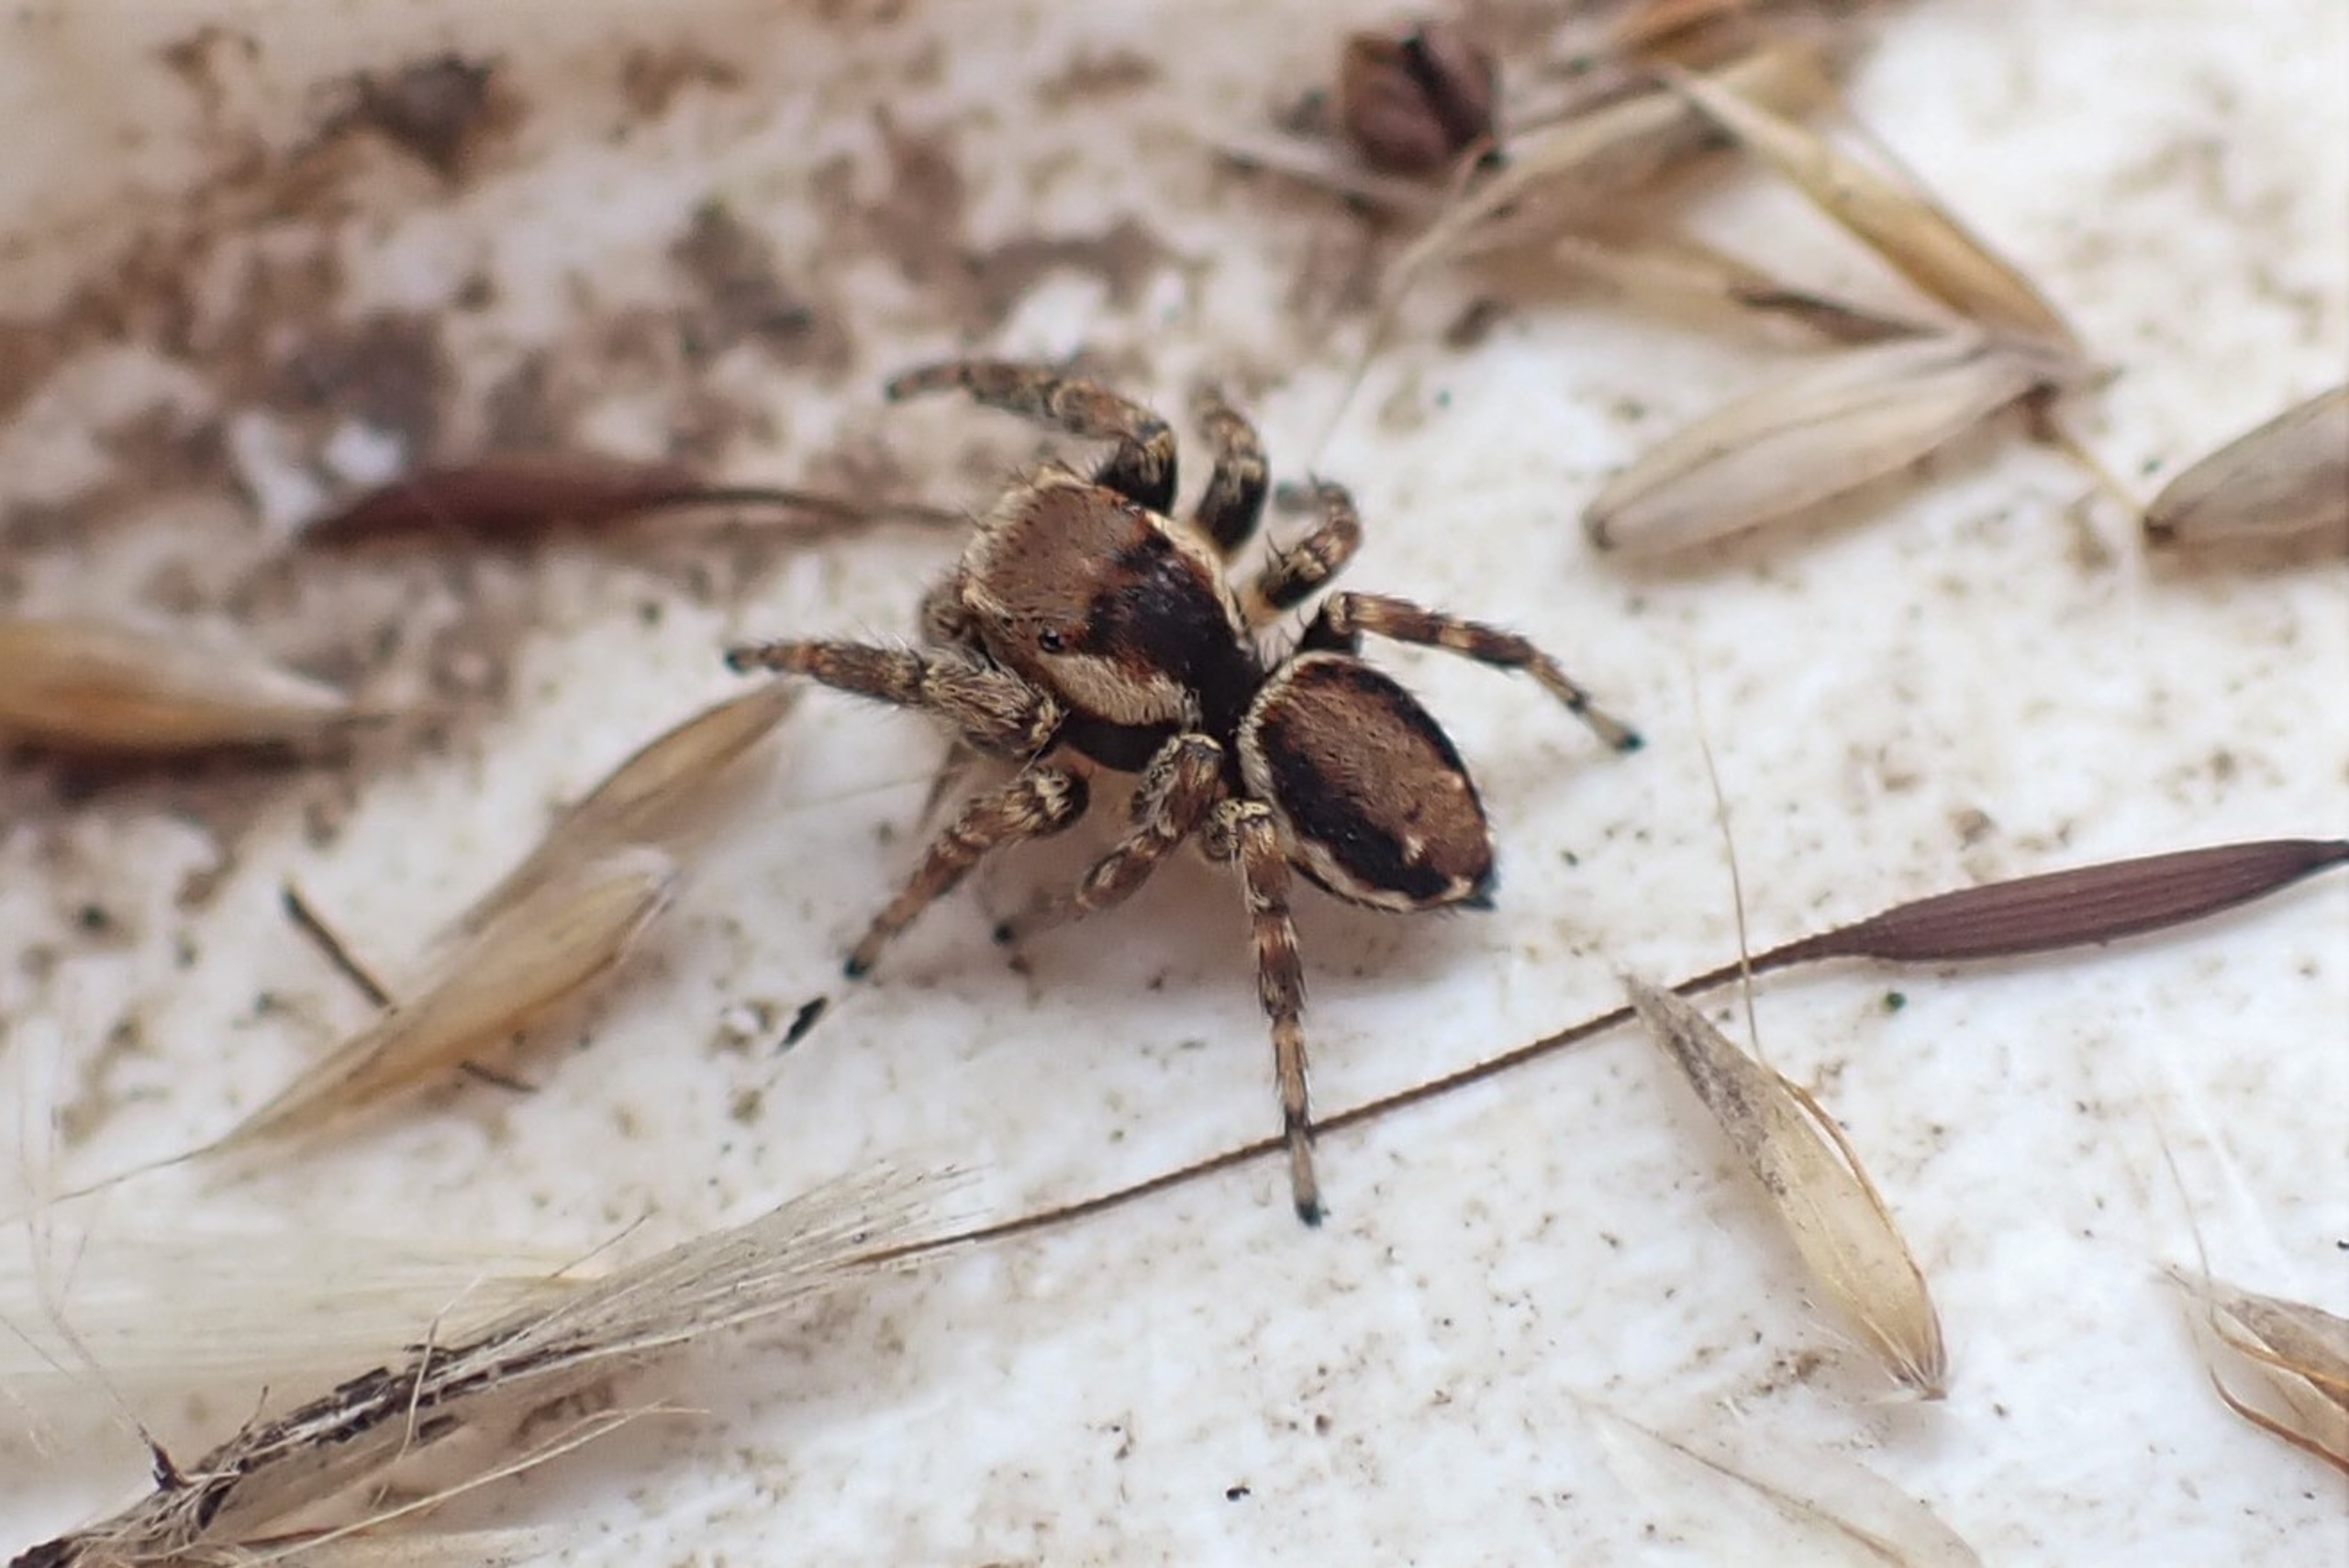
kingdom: Animalia
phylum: Arthropoda
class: Arachnida
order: Araneae
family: Salticidae
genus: Evarcha
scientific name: Evarcha falcata
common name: Broget springedderkop
